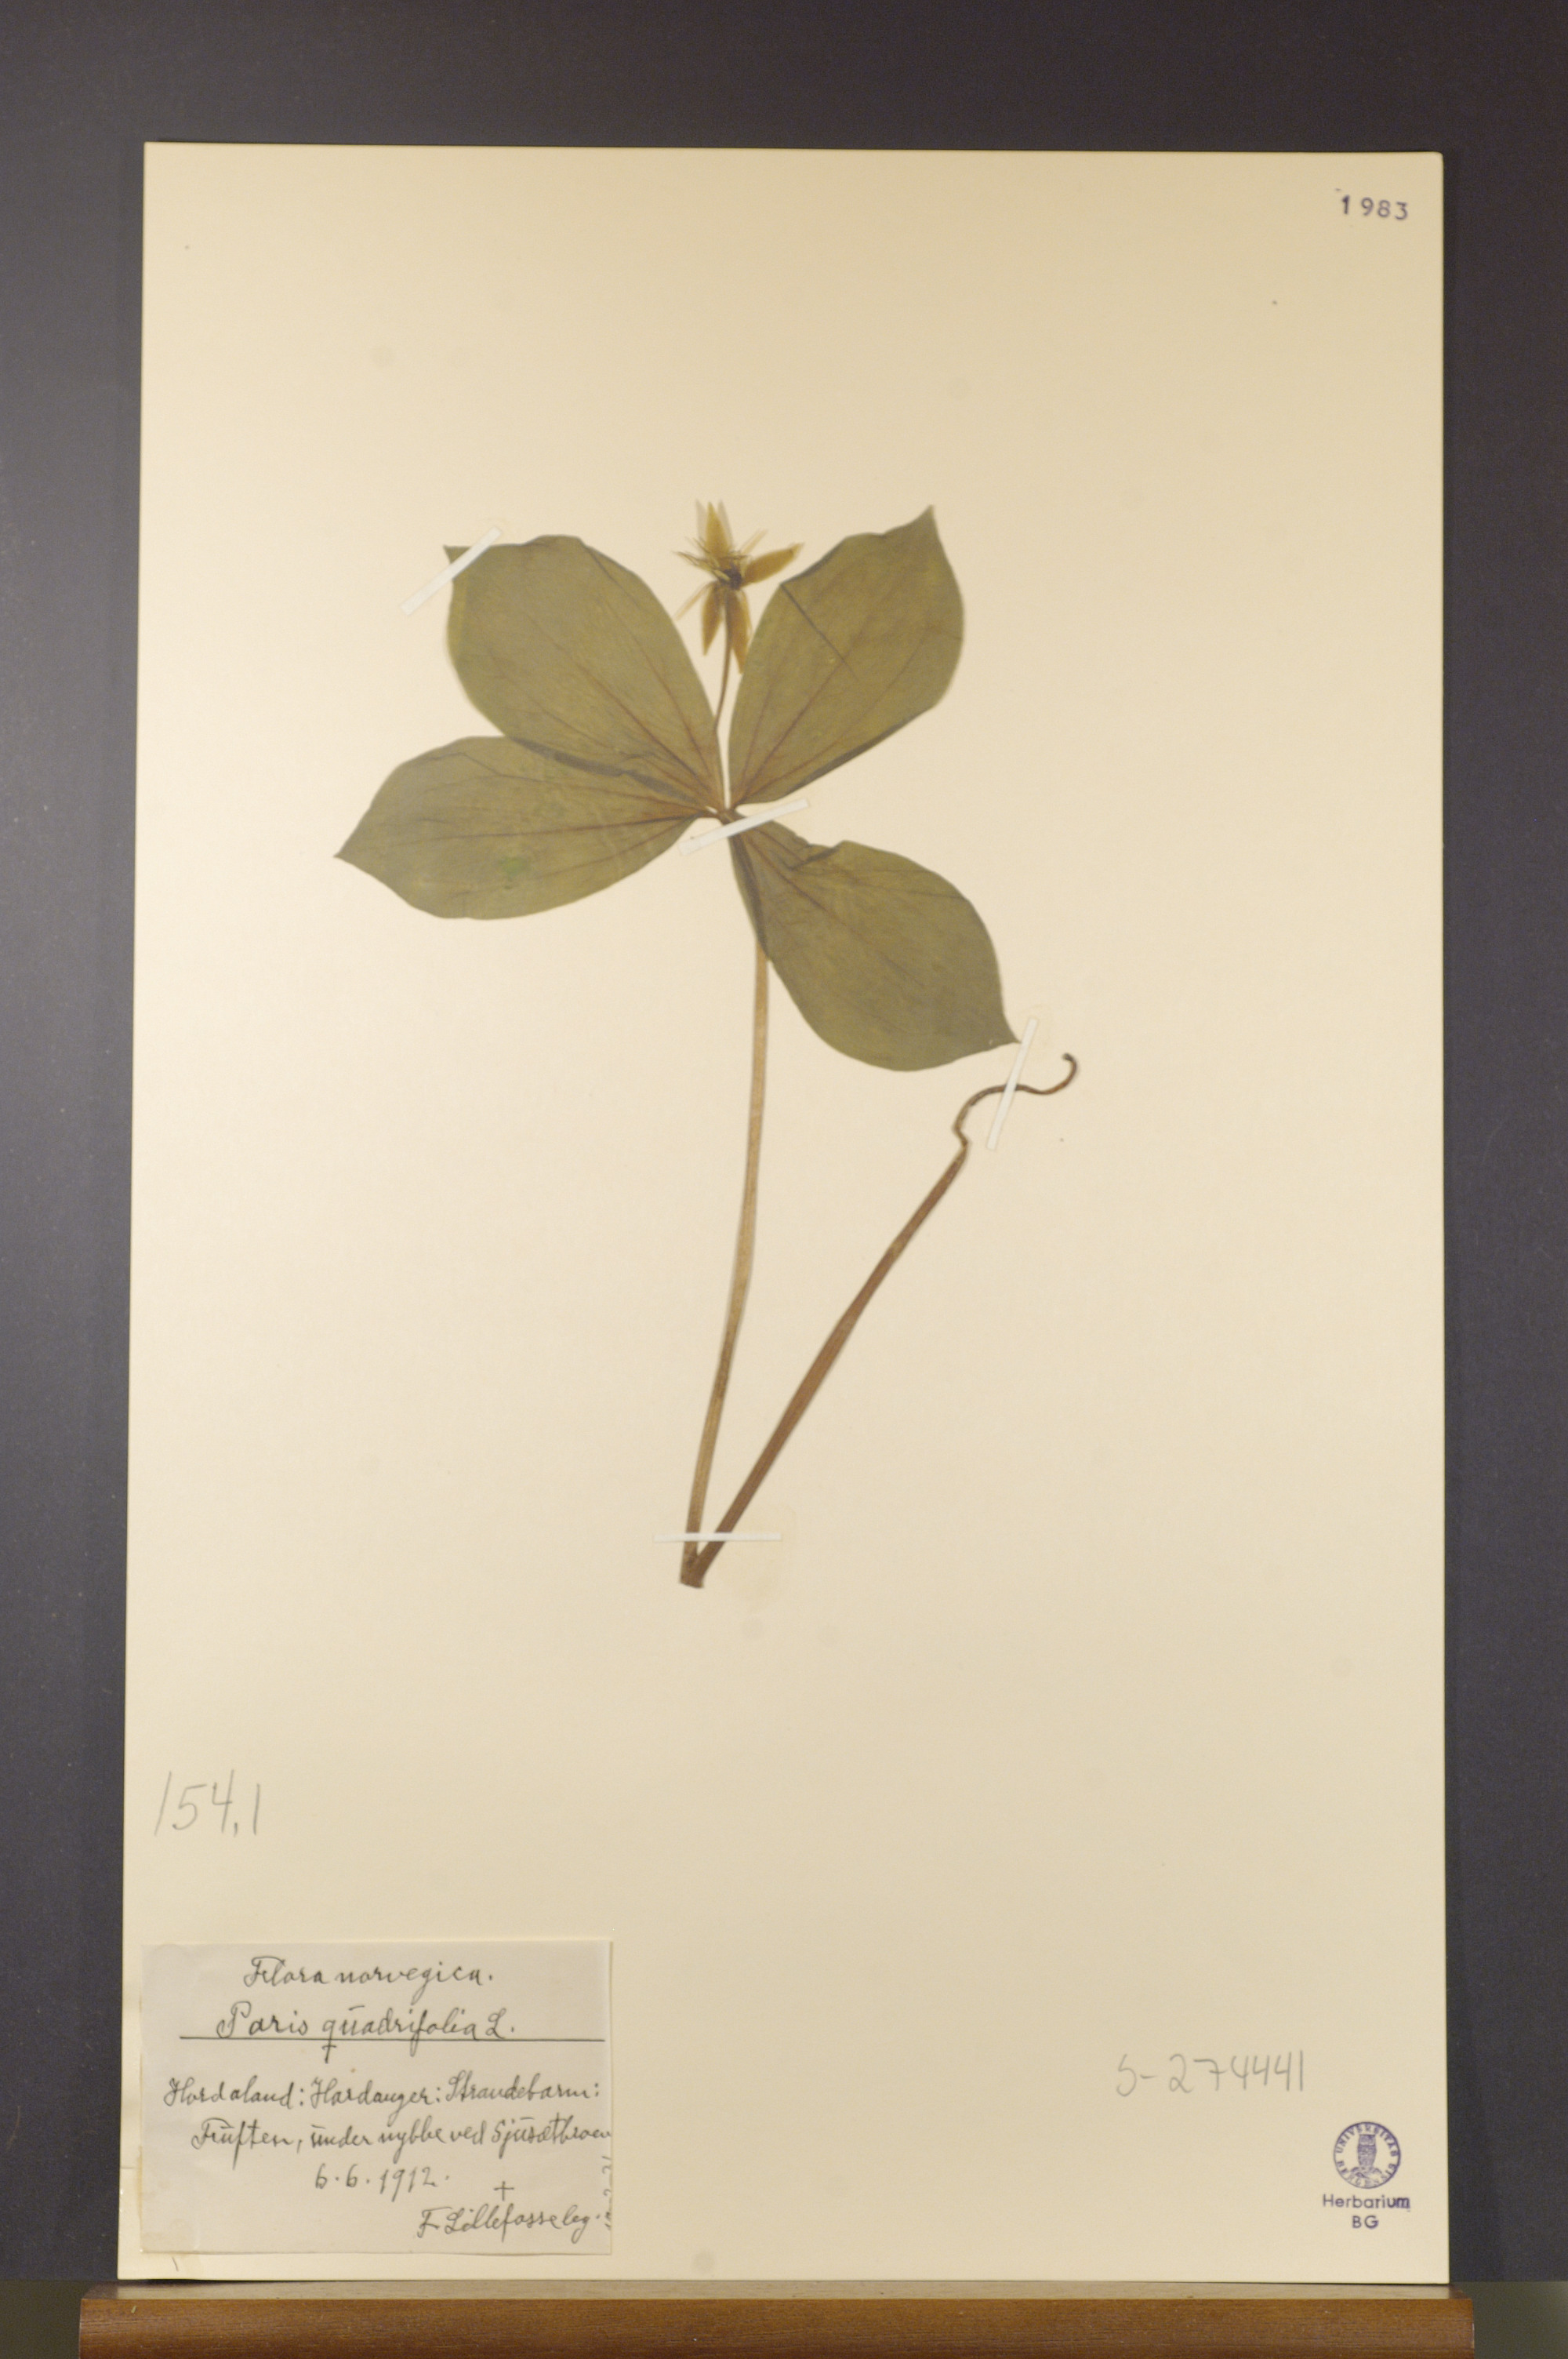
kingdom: Plantae
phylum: Tracheophyta
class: Liliopsida
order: Liliales
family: Melanthiaceae
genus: Paris
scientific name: Paris quadrifolia
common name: Herb-paris
